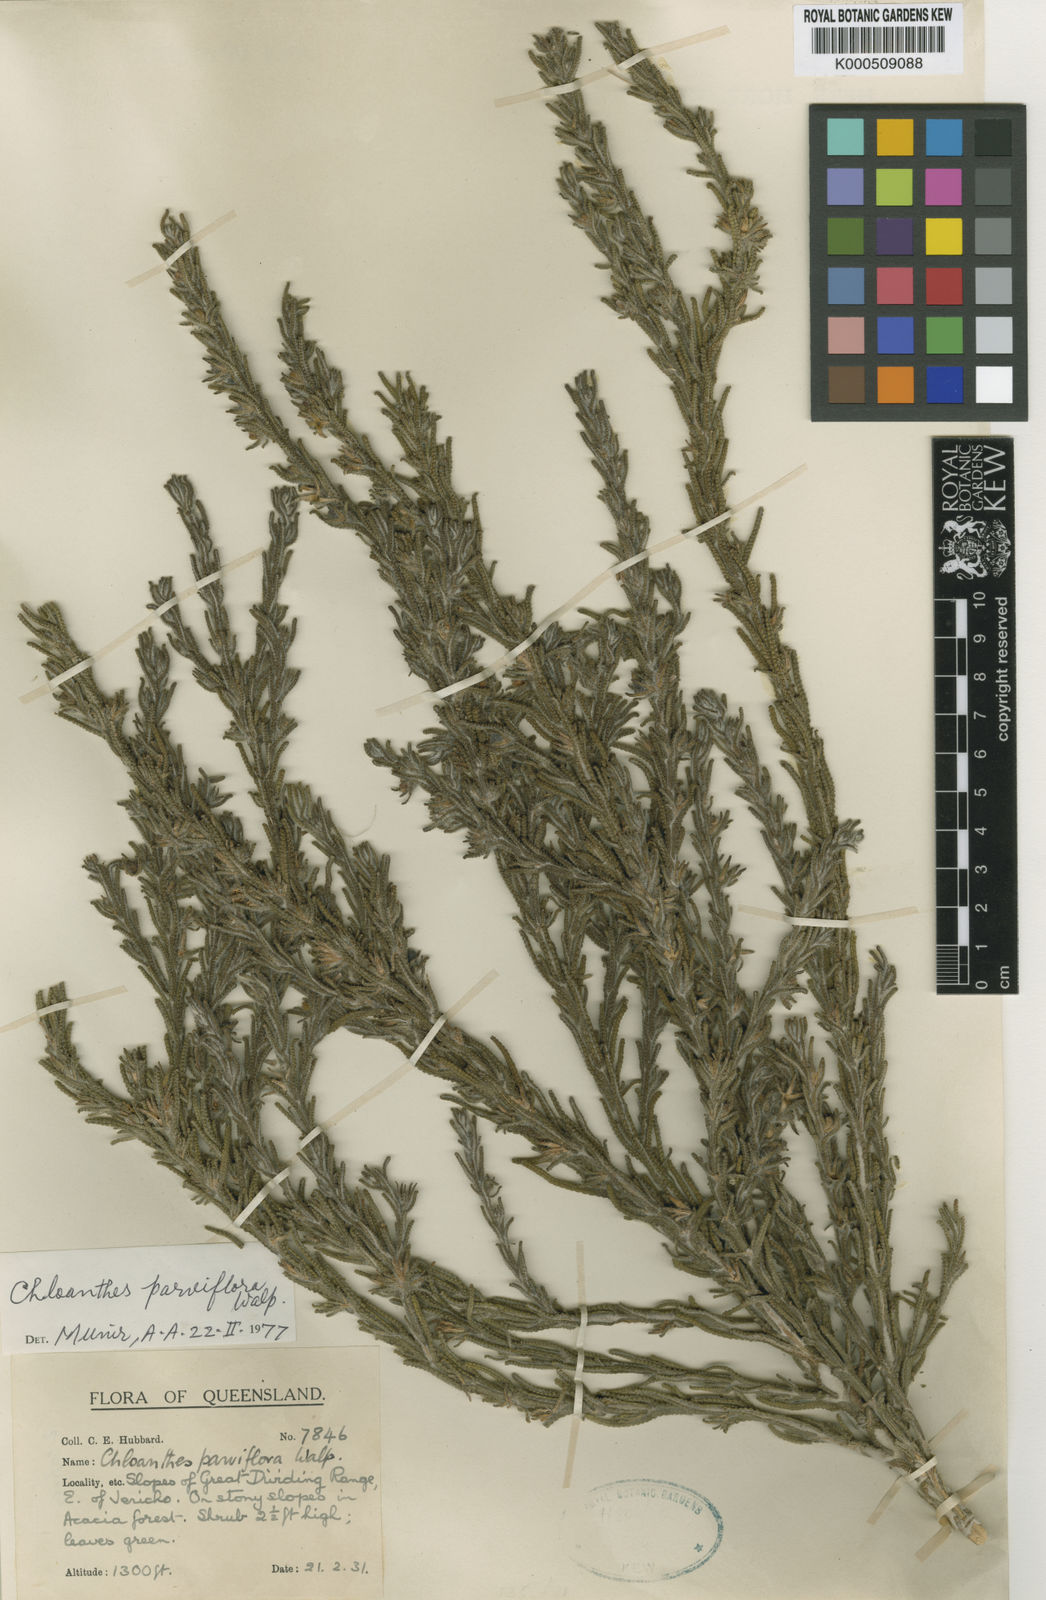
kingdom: Plantae
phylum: Tracheophyta
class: Magnoliopsida
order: Lamiales
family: Lamiaceae
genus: Chloanthes
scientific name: Chloanthes parviflora
